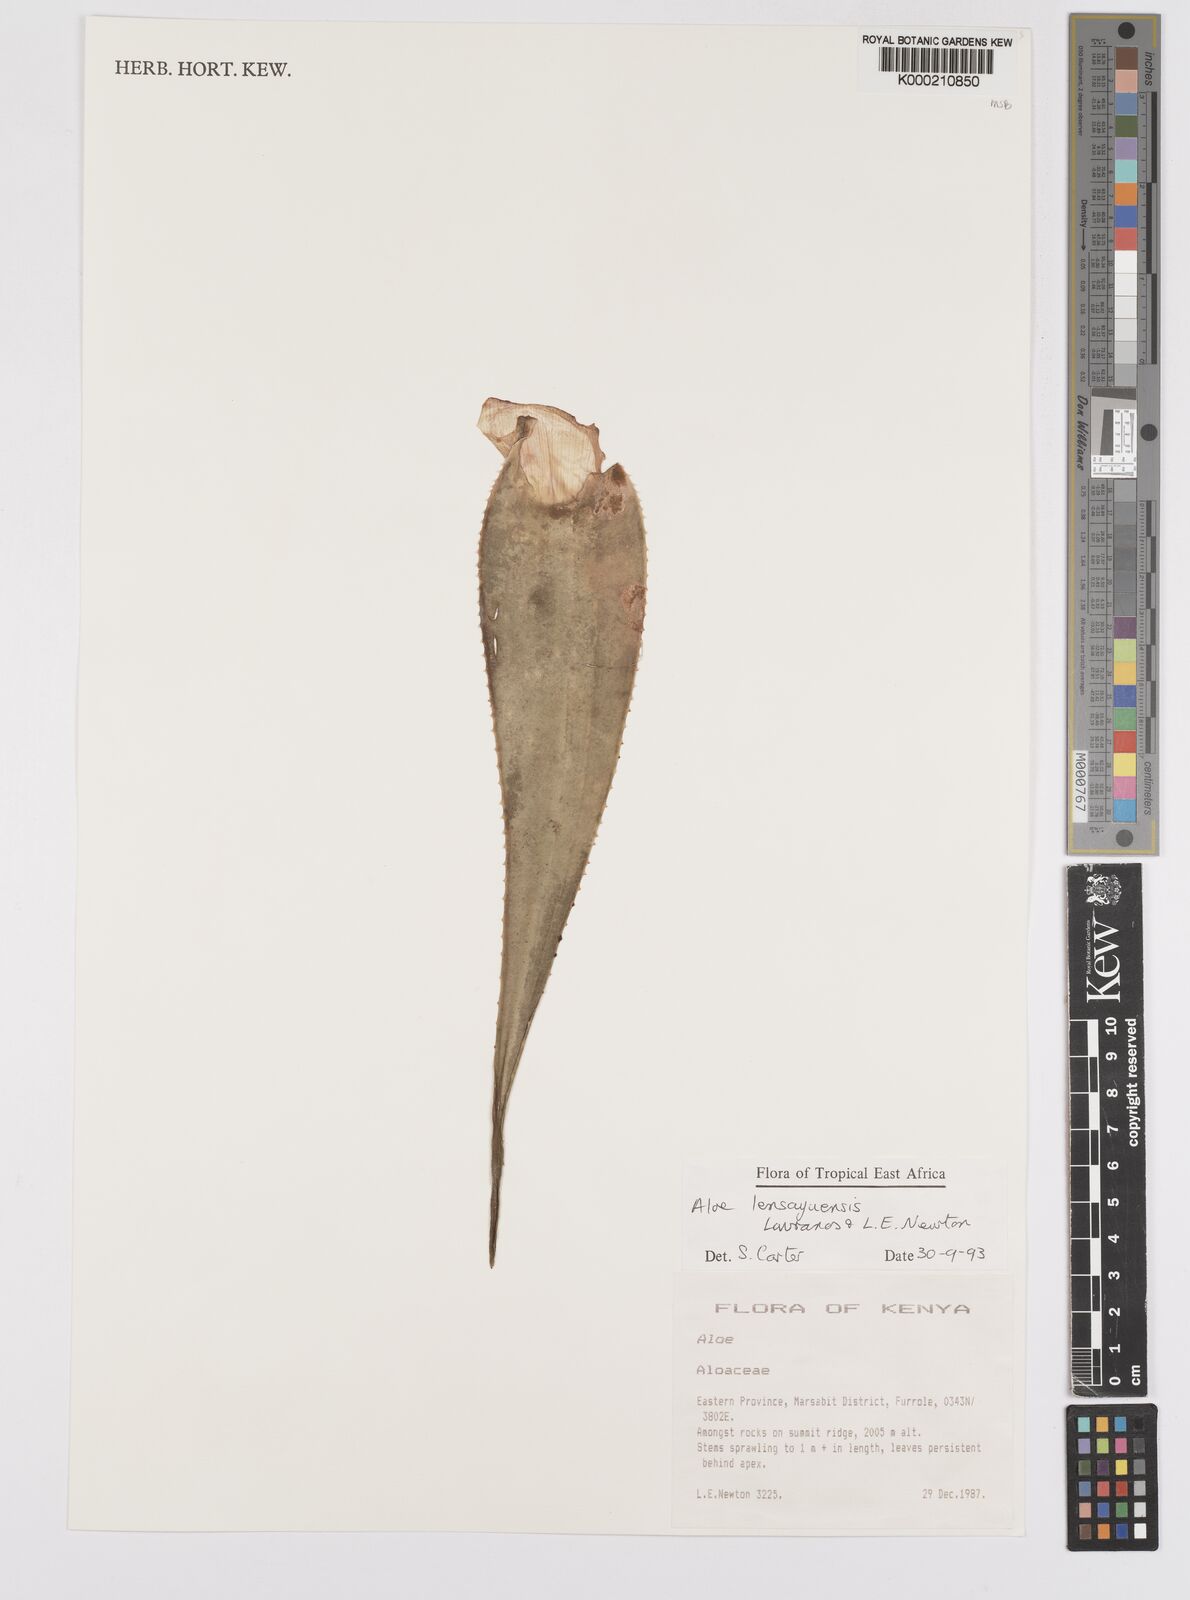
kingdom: Plantae
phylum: Tracheophyta
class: Liliopsida
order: Asparagales
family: Asphodelaceae
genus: Aloe
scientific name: Aloe lensayuensis
